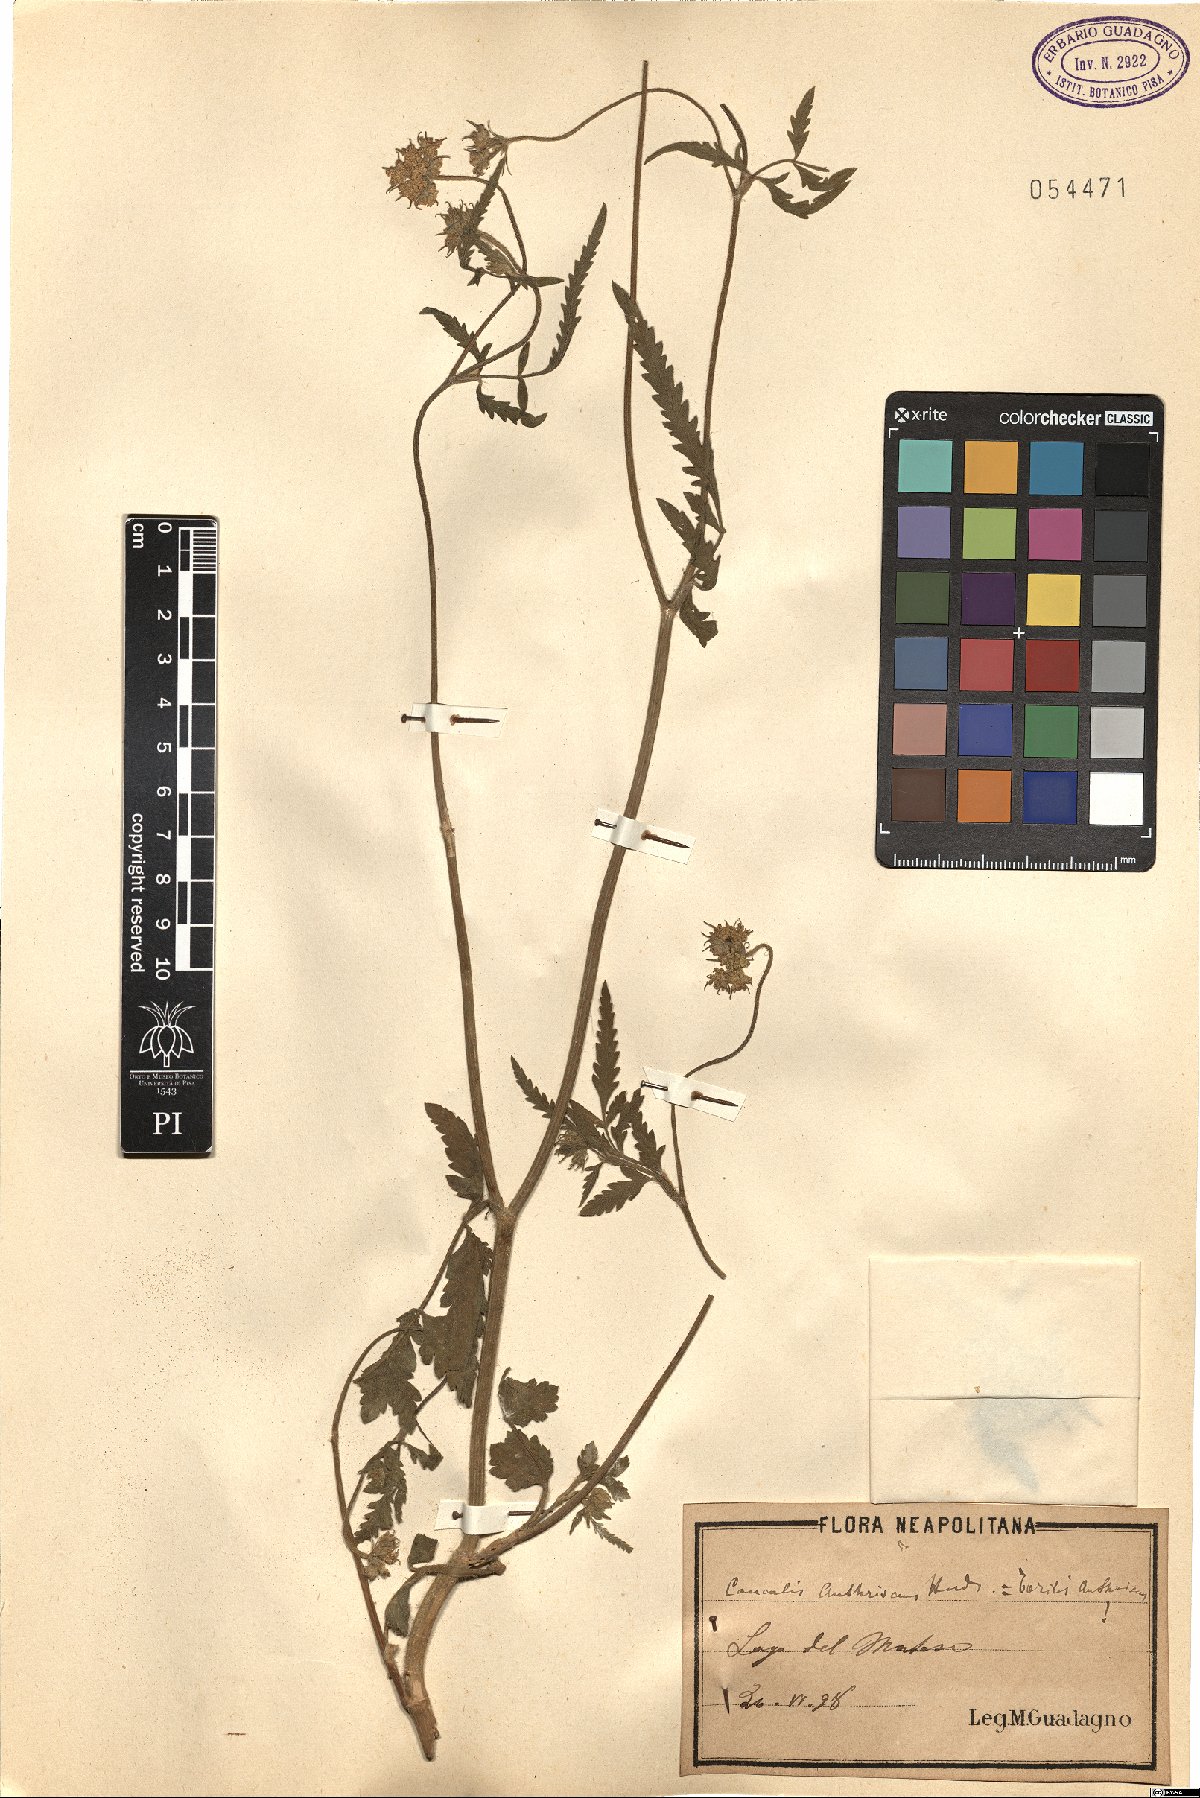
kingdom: Plantae
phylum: Tracheophyta
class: Magnoliopsida
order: Apiales
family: Apiaceae
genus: Torilis
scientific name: Torilis japonica
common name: Upright hedge-parsley
